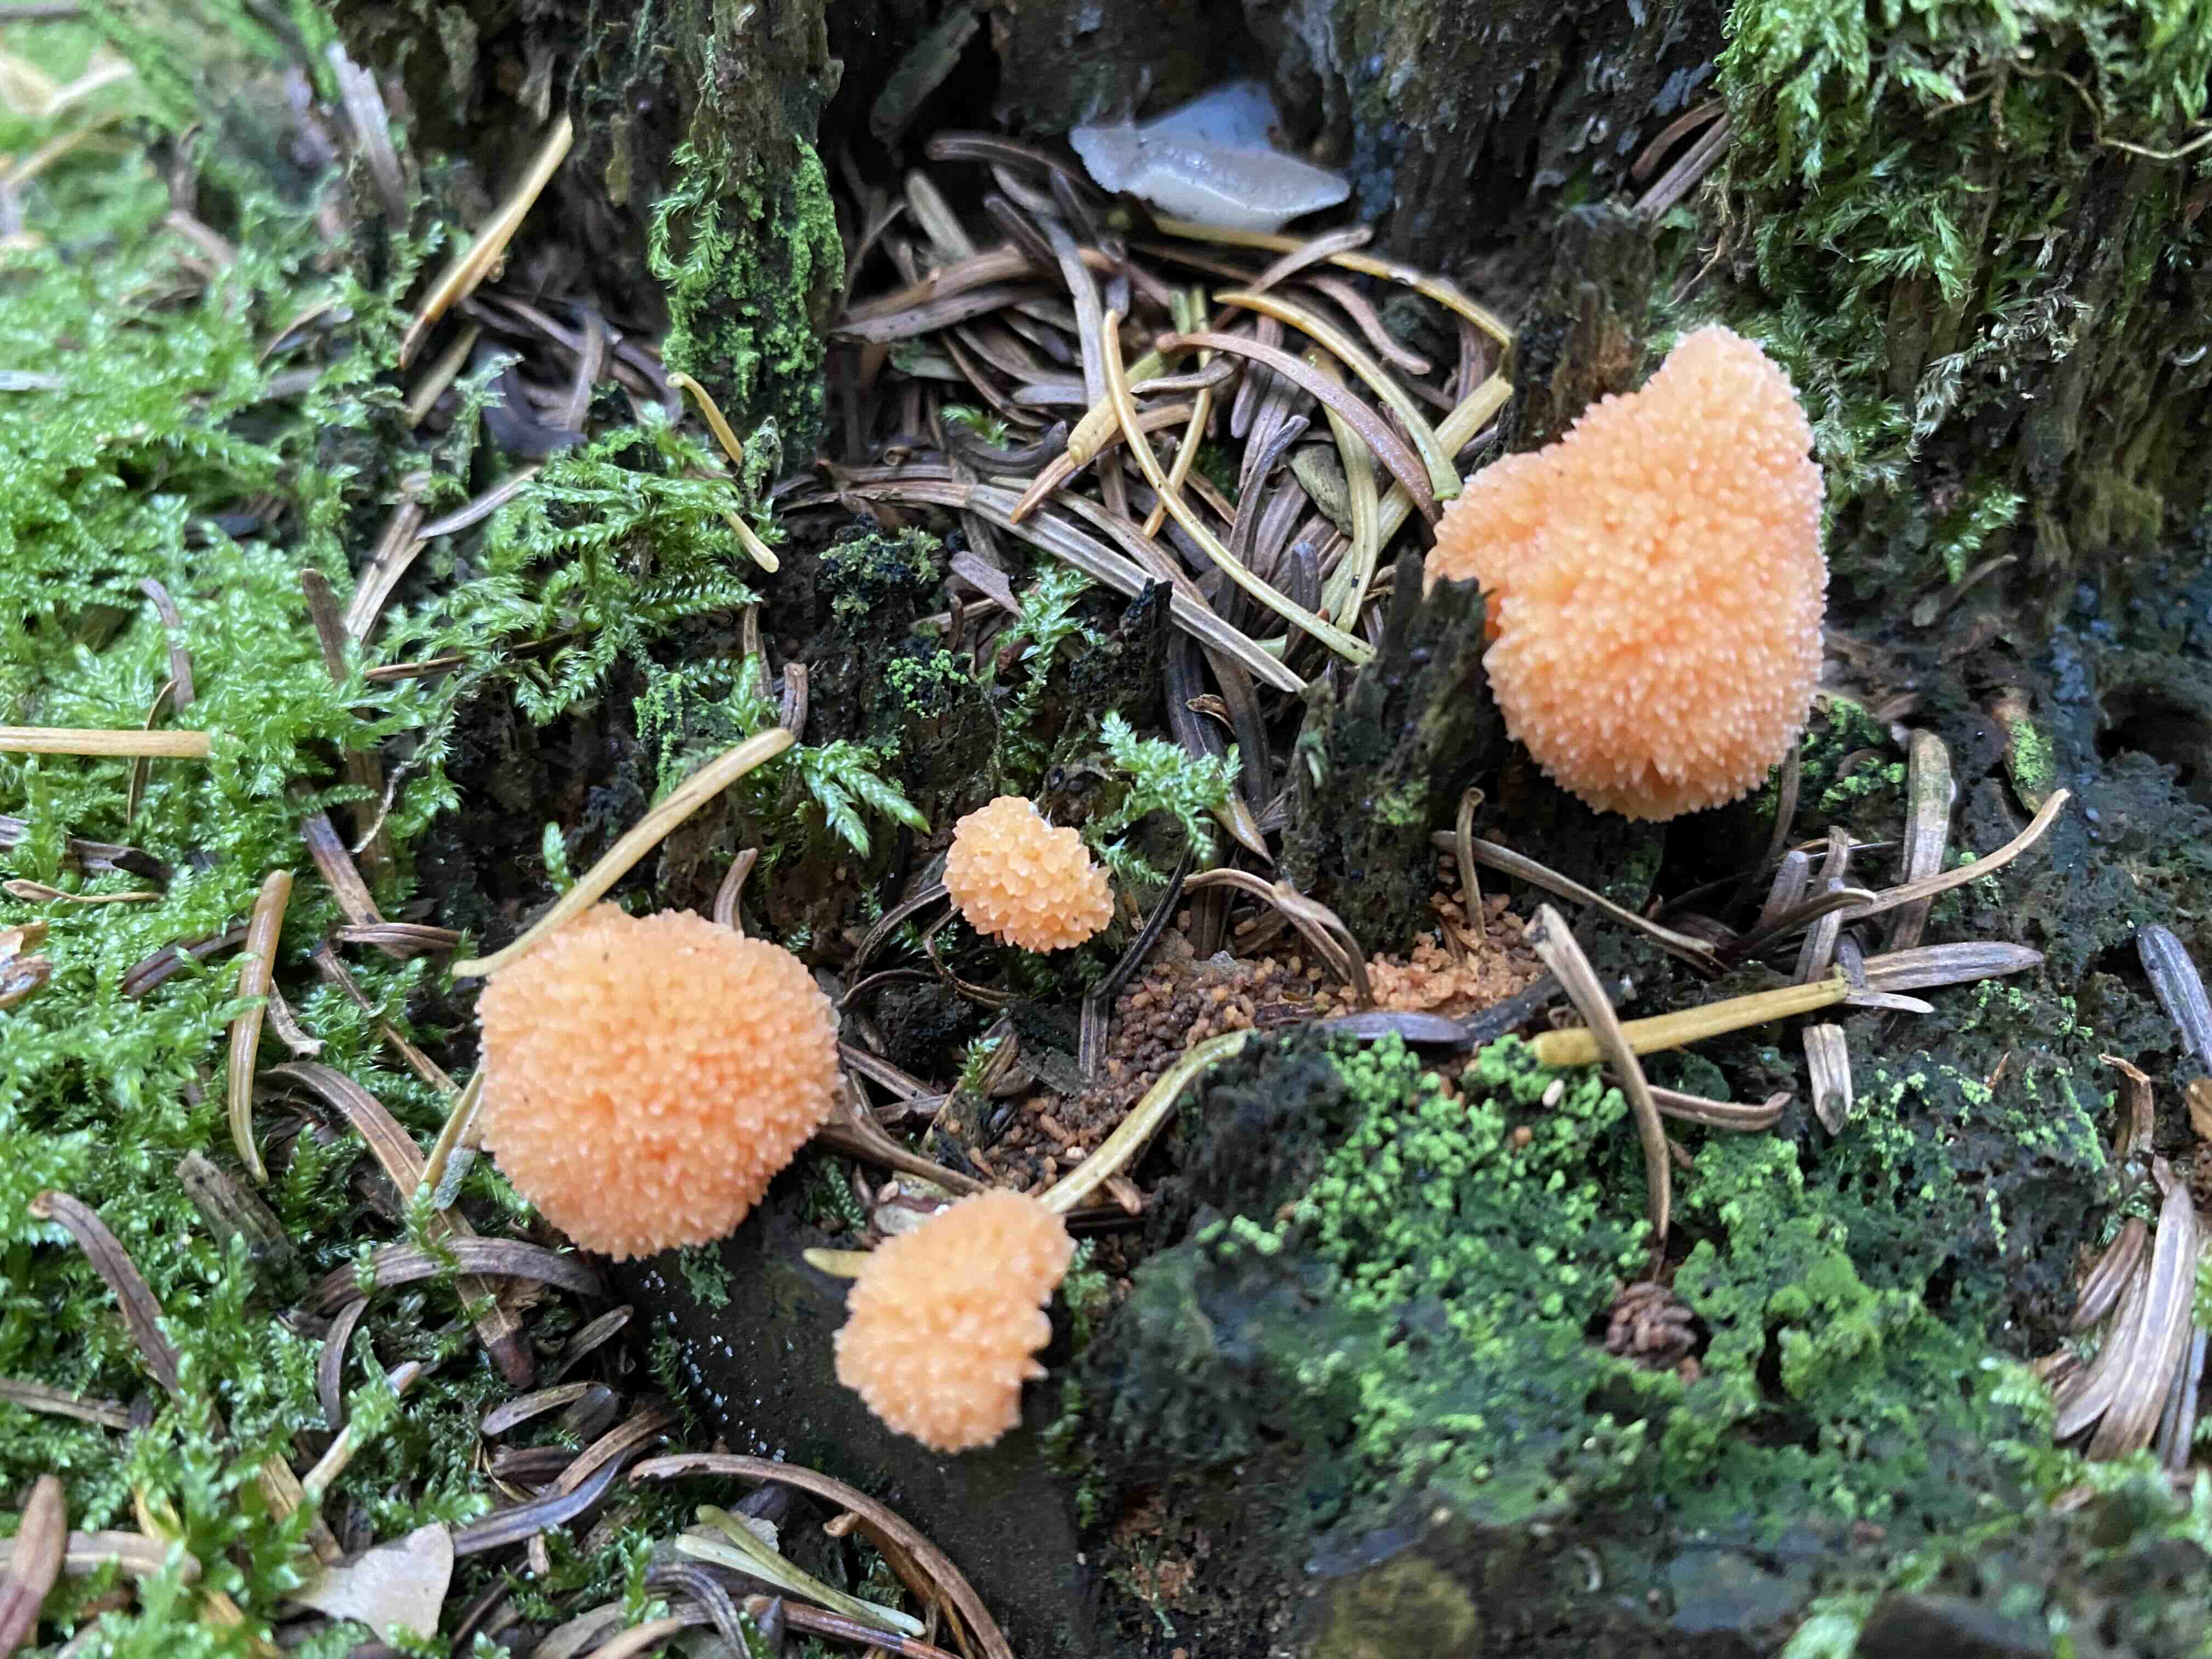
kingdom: Protozoa
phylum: Mycetozoa
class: Myxomycetes
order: Cribrariales
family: Tubiferaceae
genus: Tubifera
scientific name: Tubifera ferruginosa
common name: kanel-støvrør
